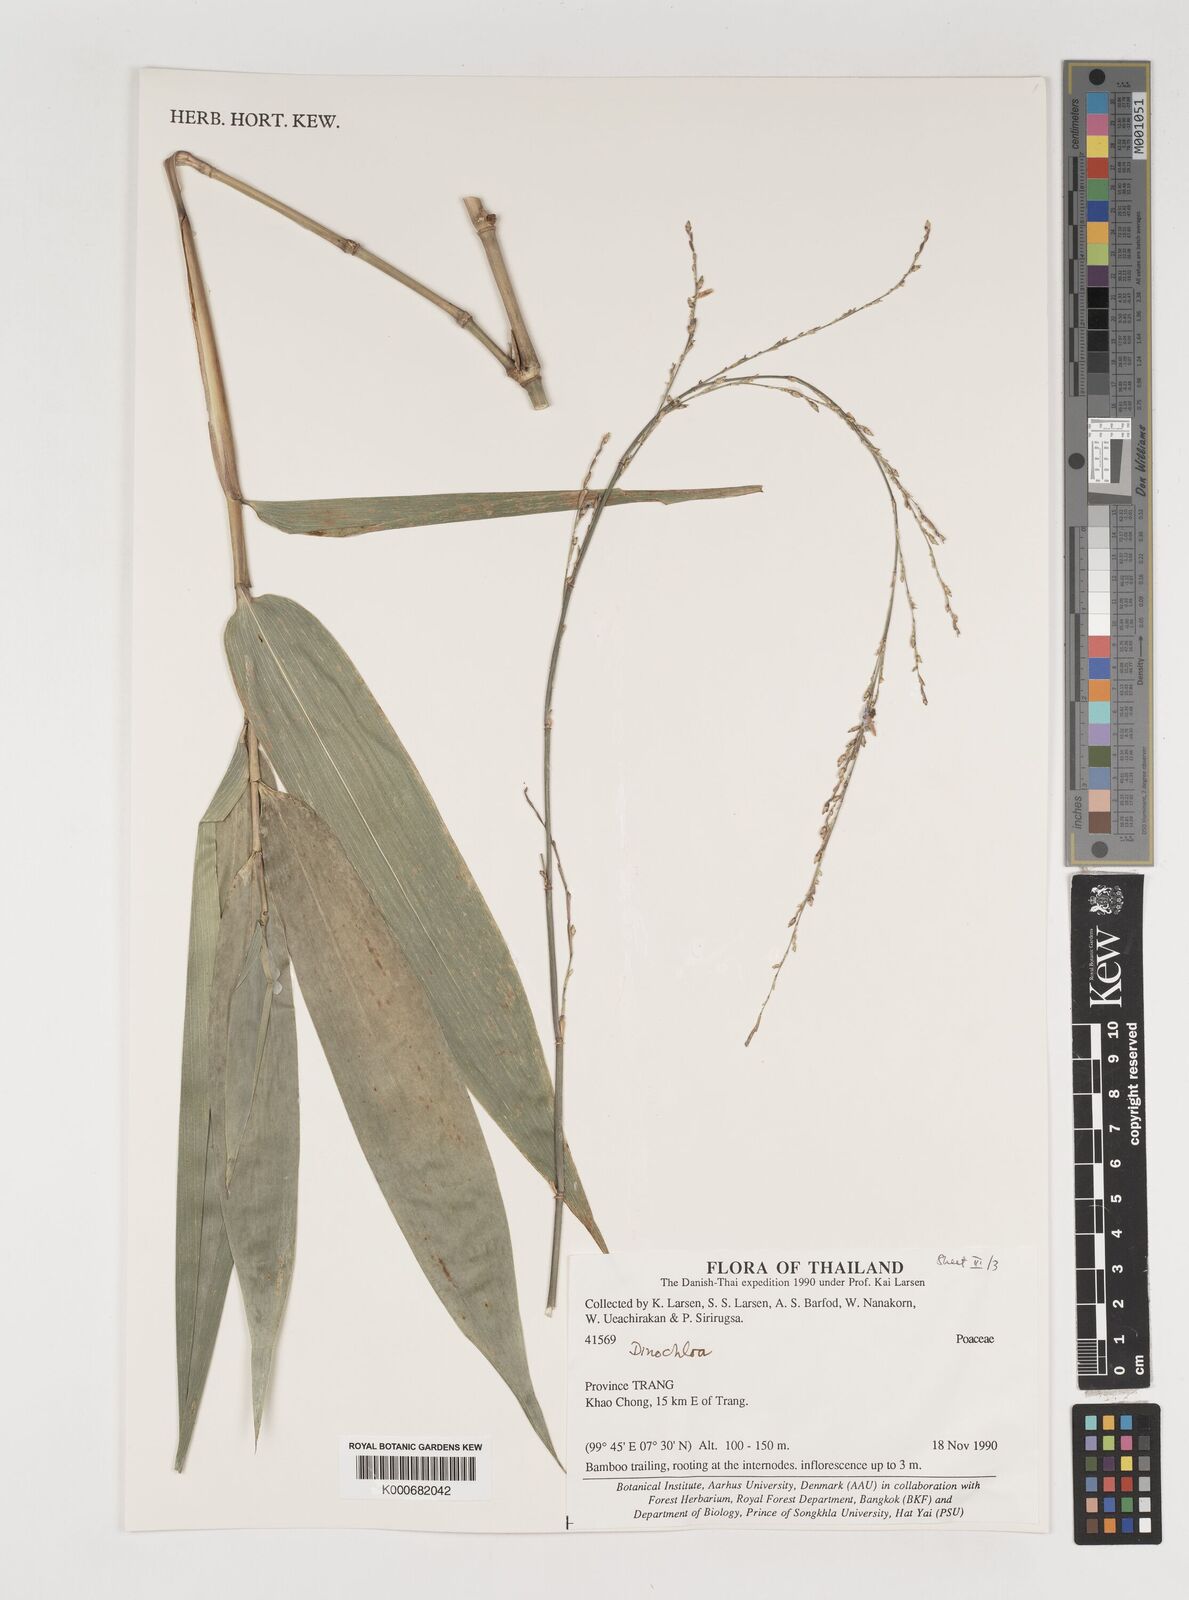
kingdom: Plantae
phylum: Tracheophyta
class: Liliopsida
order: Poales
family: Poaceae
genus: Dinochloa
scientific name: Dinochloa
